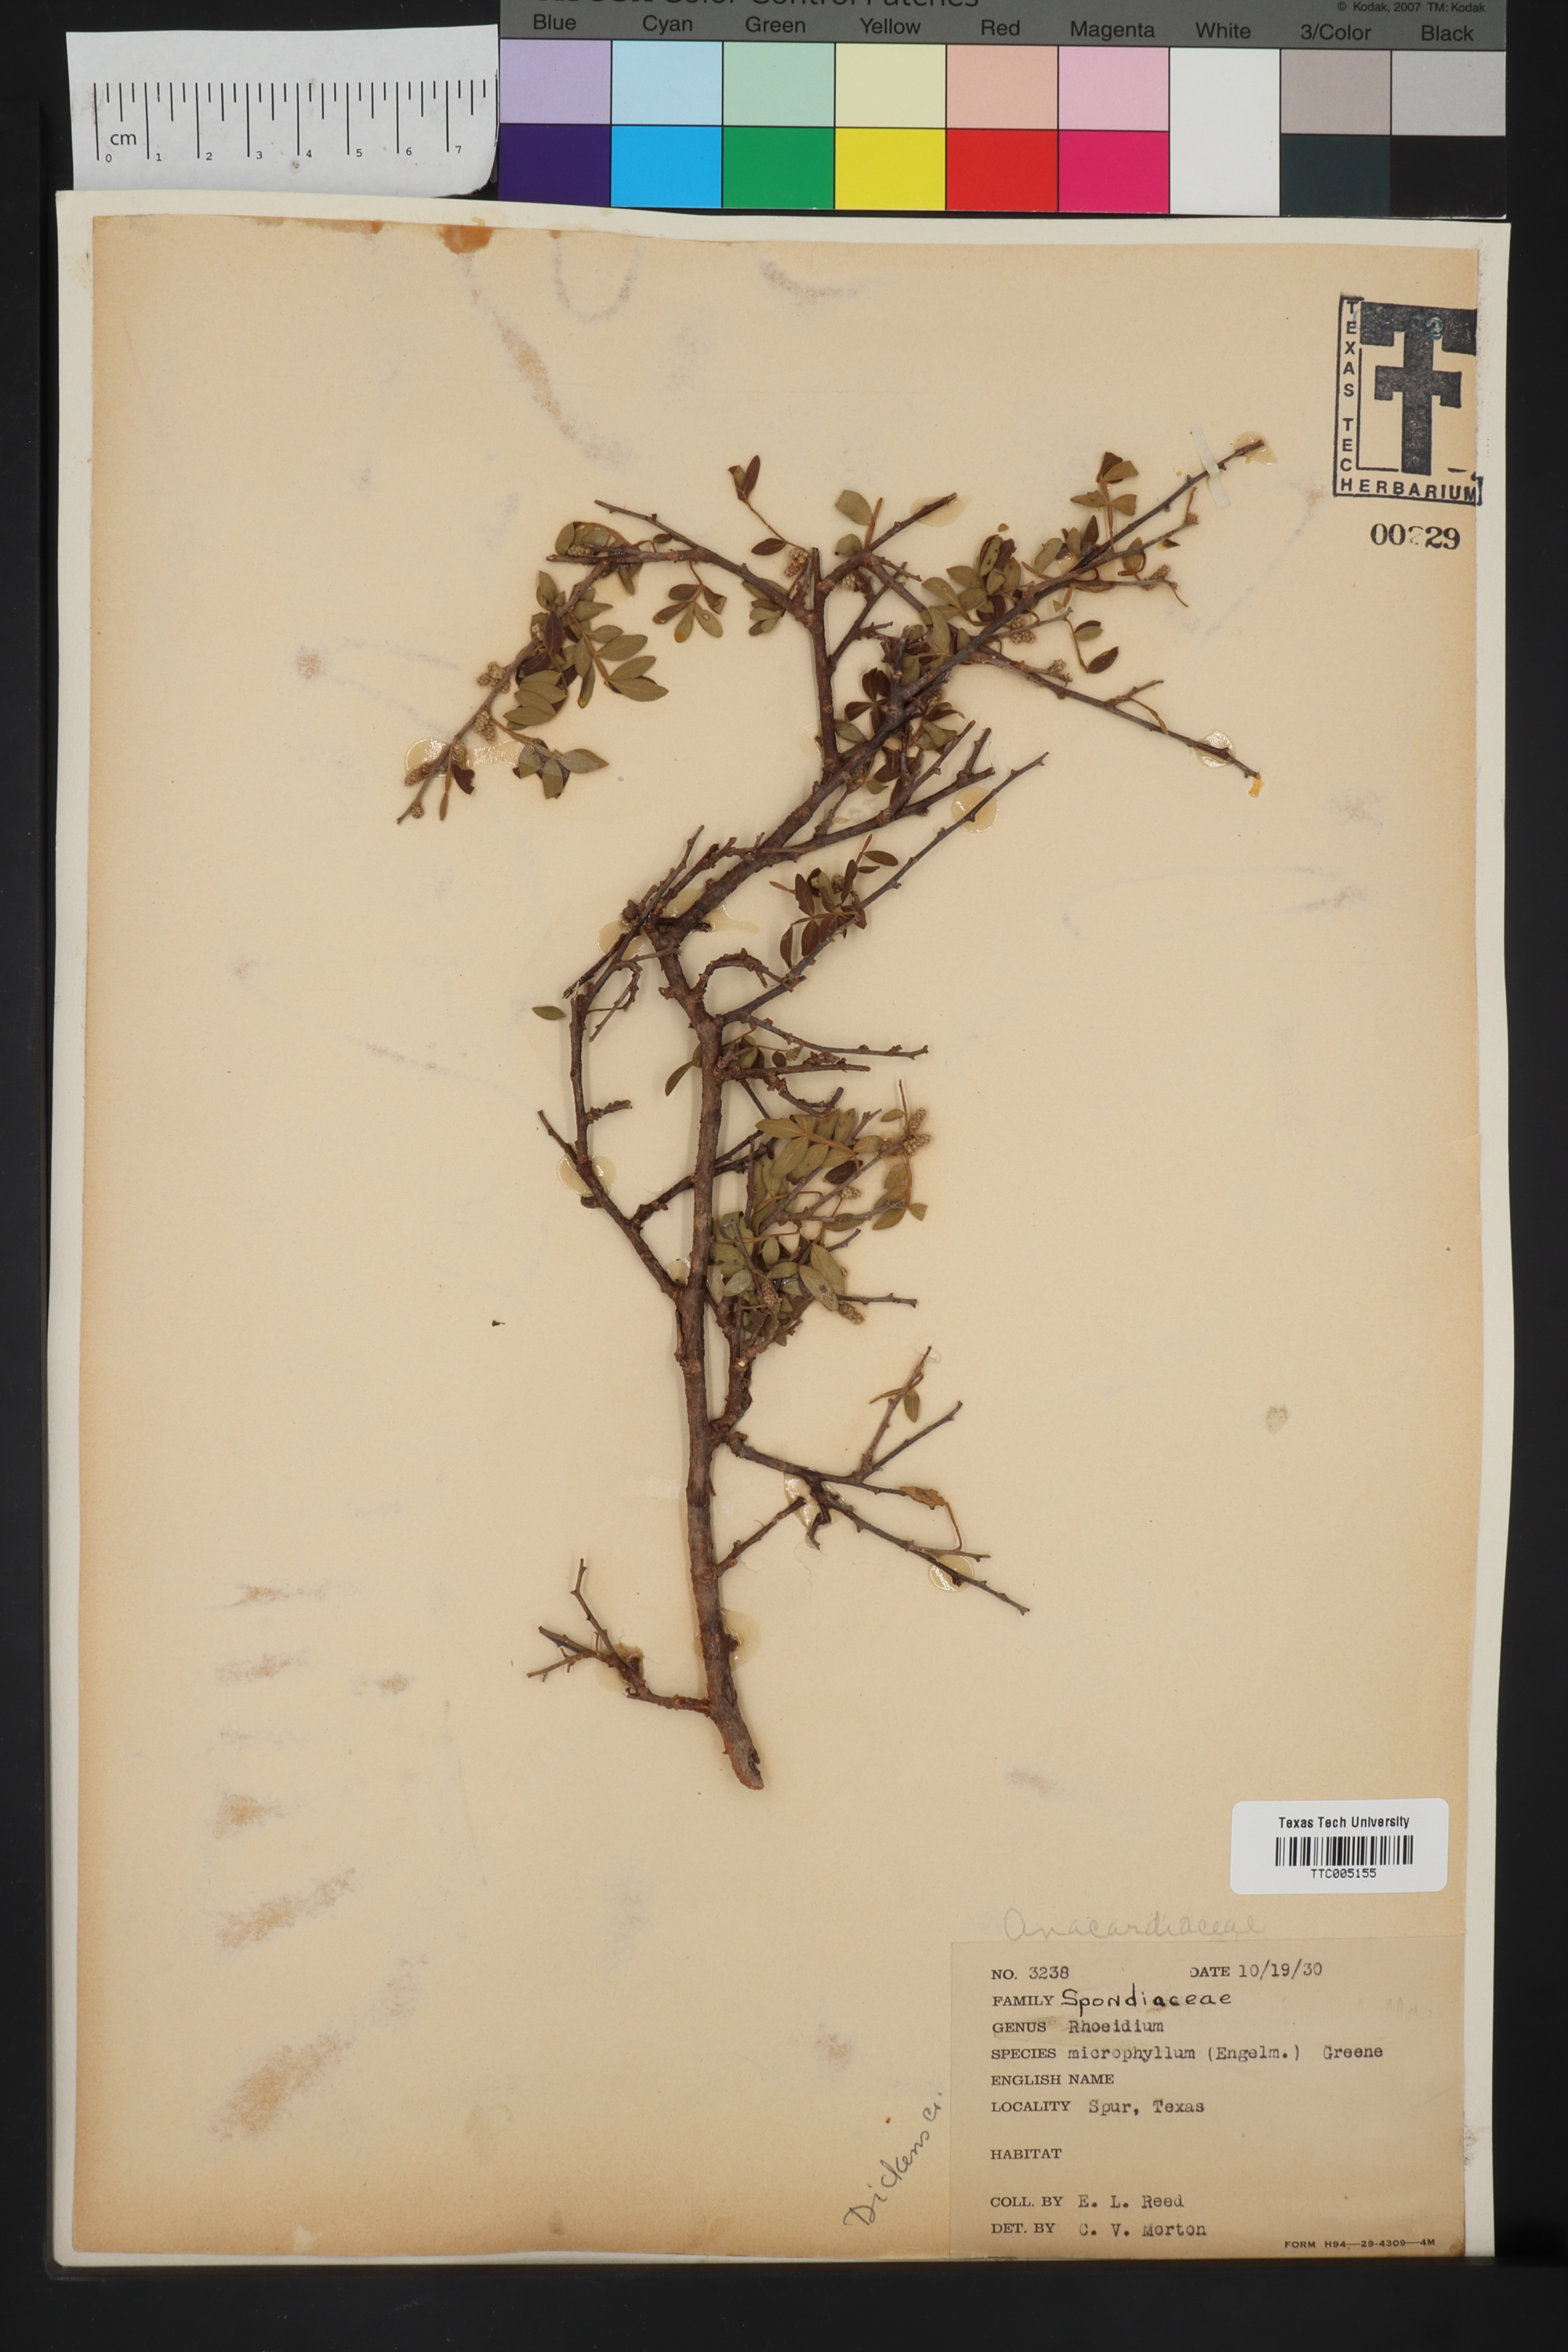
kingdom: Plantae
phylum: Tracheophyta
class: Magnoliopsida
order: Sapindales
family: Anacardiaceae
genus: Rhus
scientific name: Rhus microphylla
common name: Desert sumac
